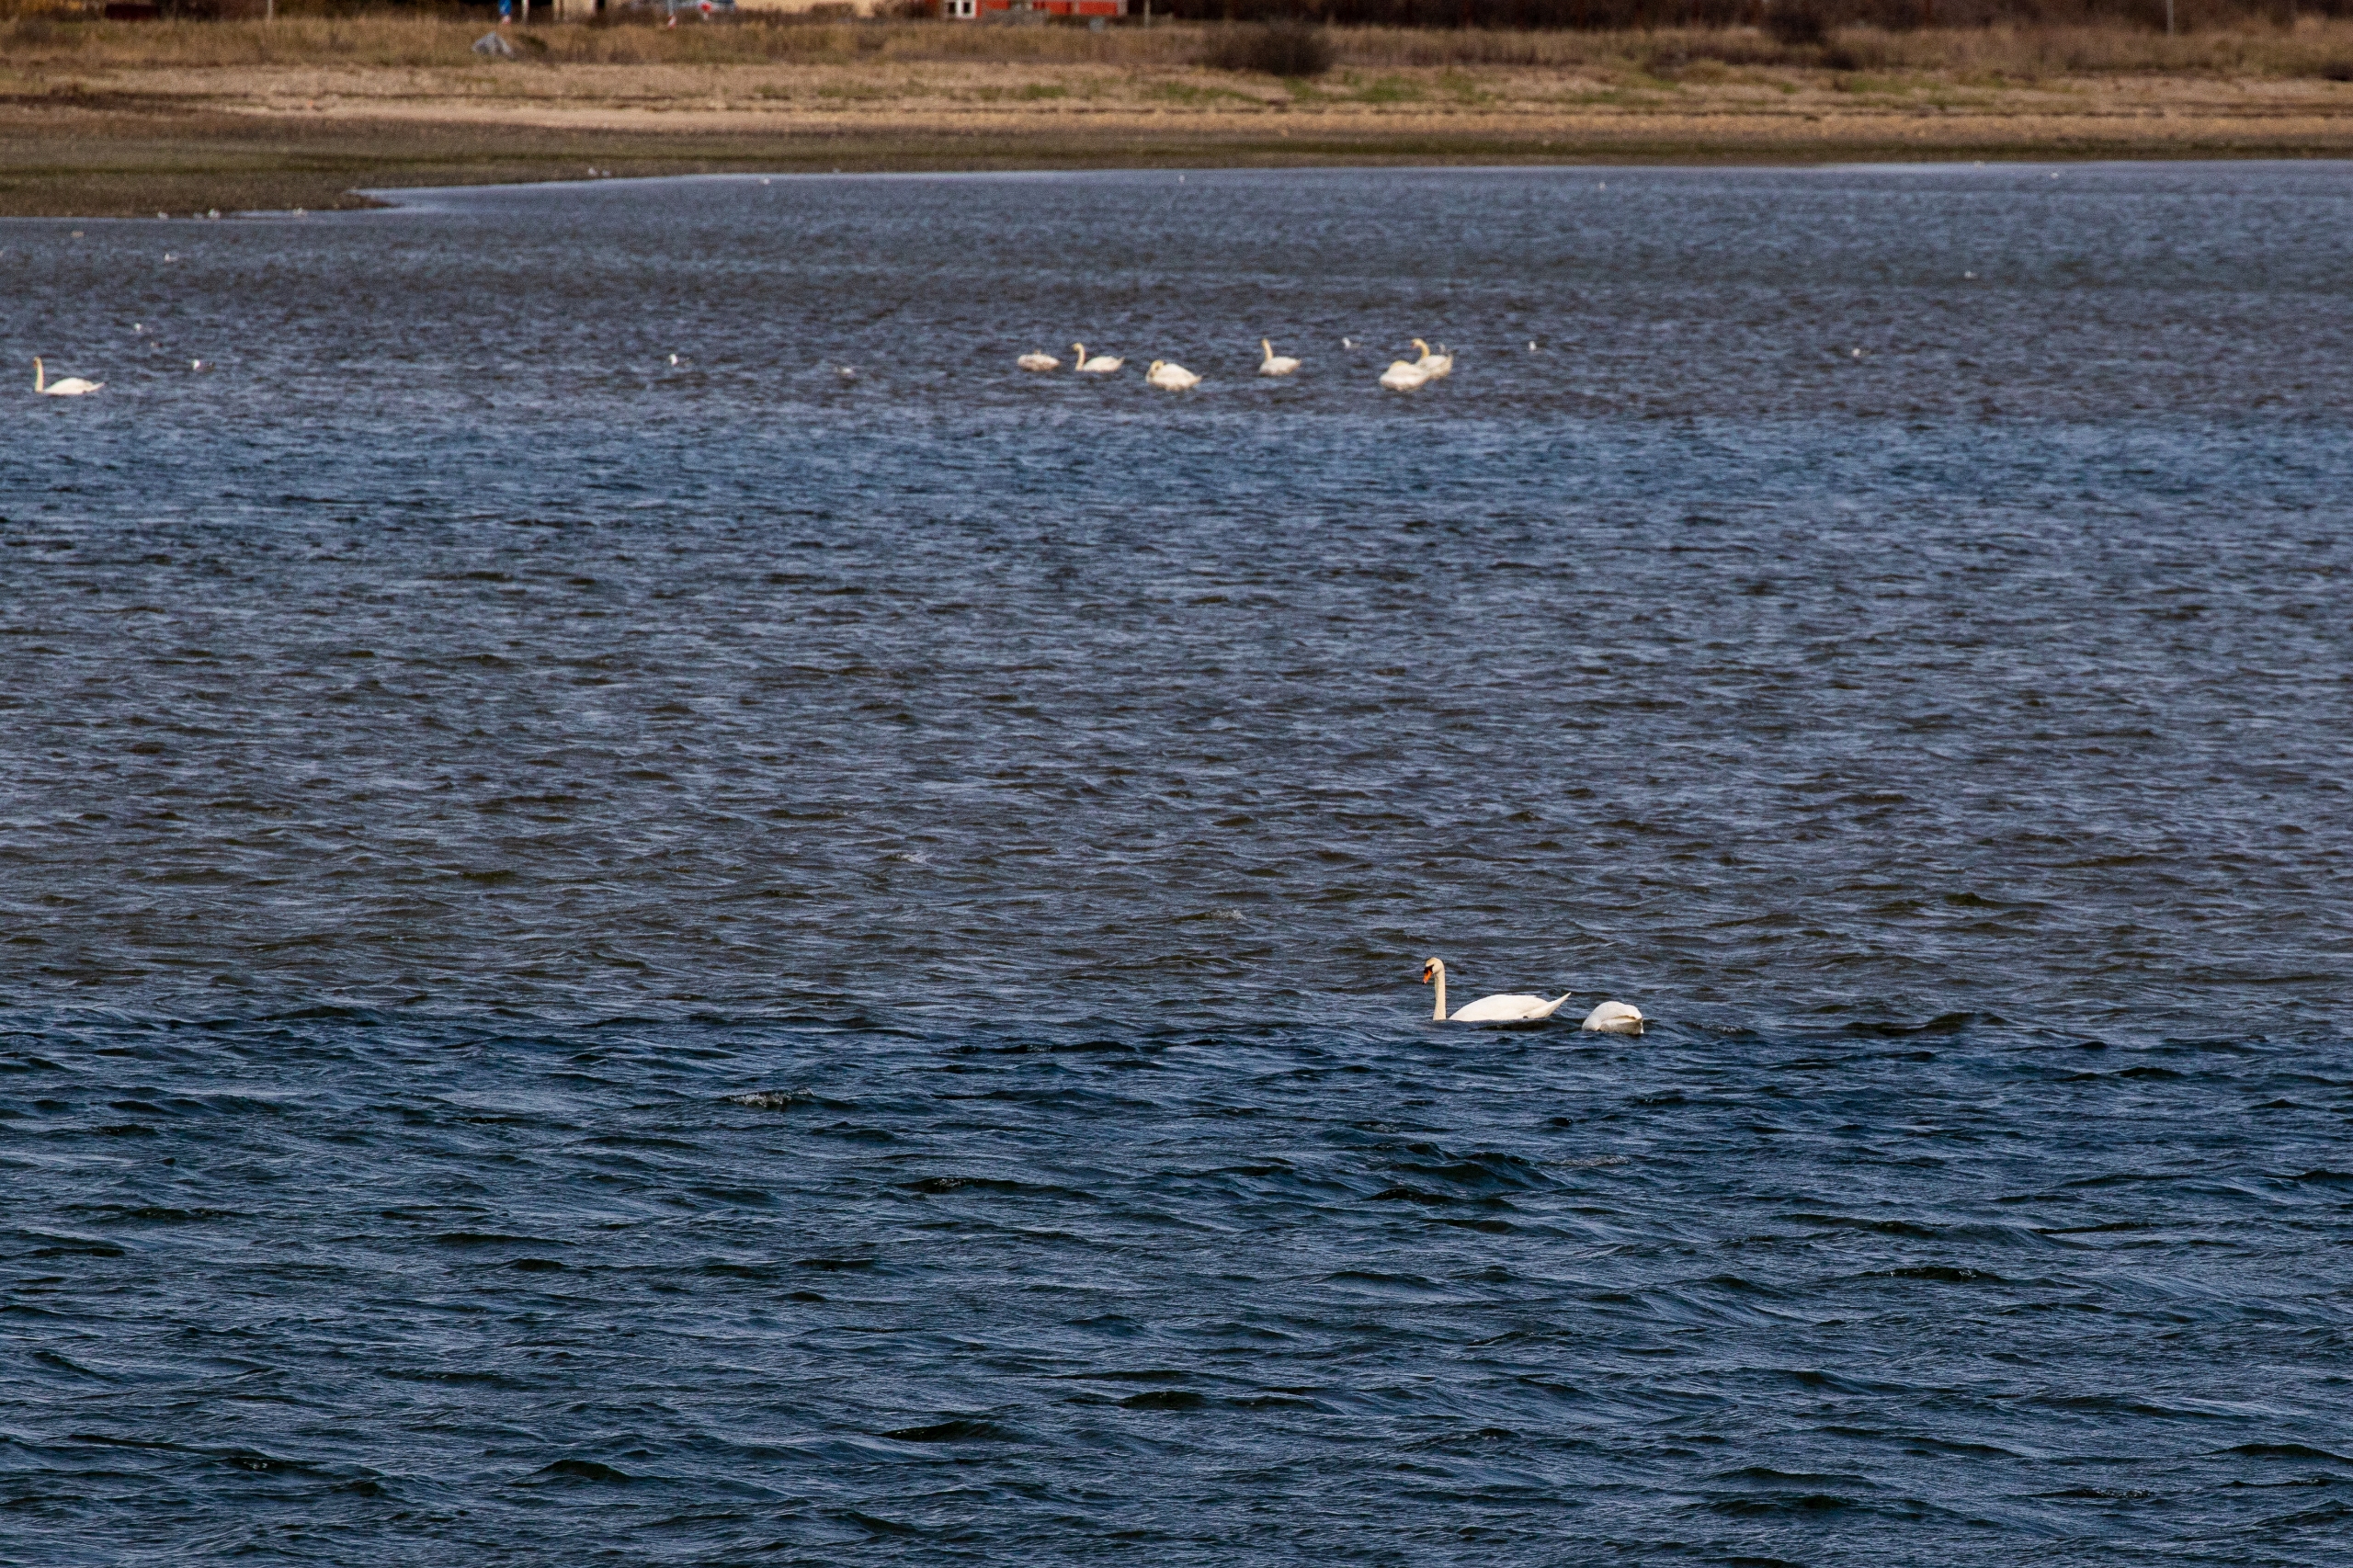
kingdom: Animalia
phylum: Chordata
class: Aves
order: Anseriformes
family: Anatidae
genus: Cygnus
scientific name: Cygnus olor
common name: Knopsvane
